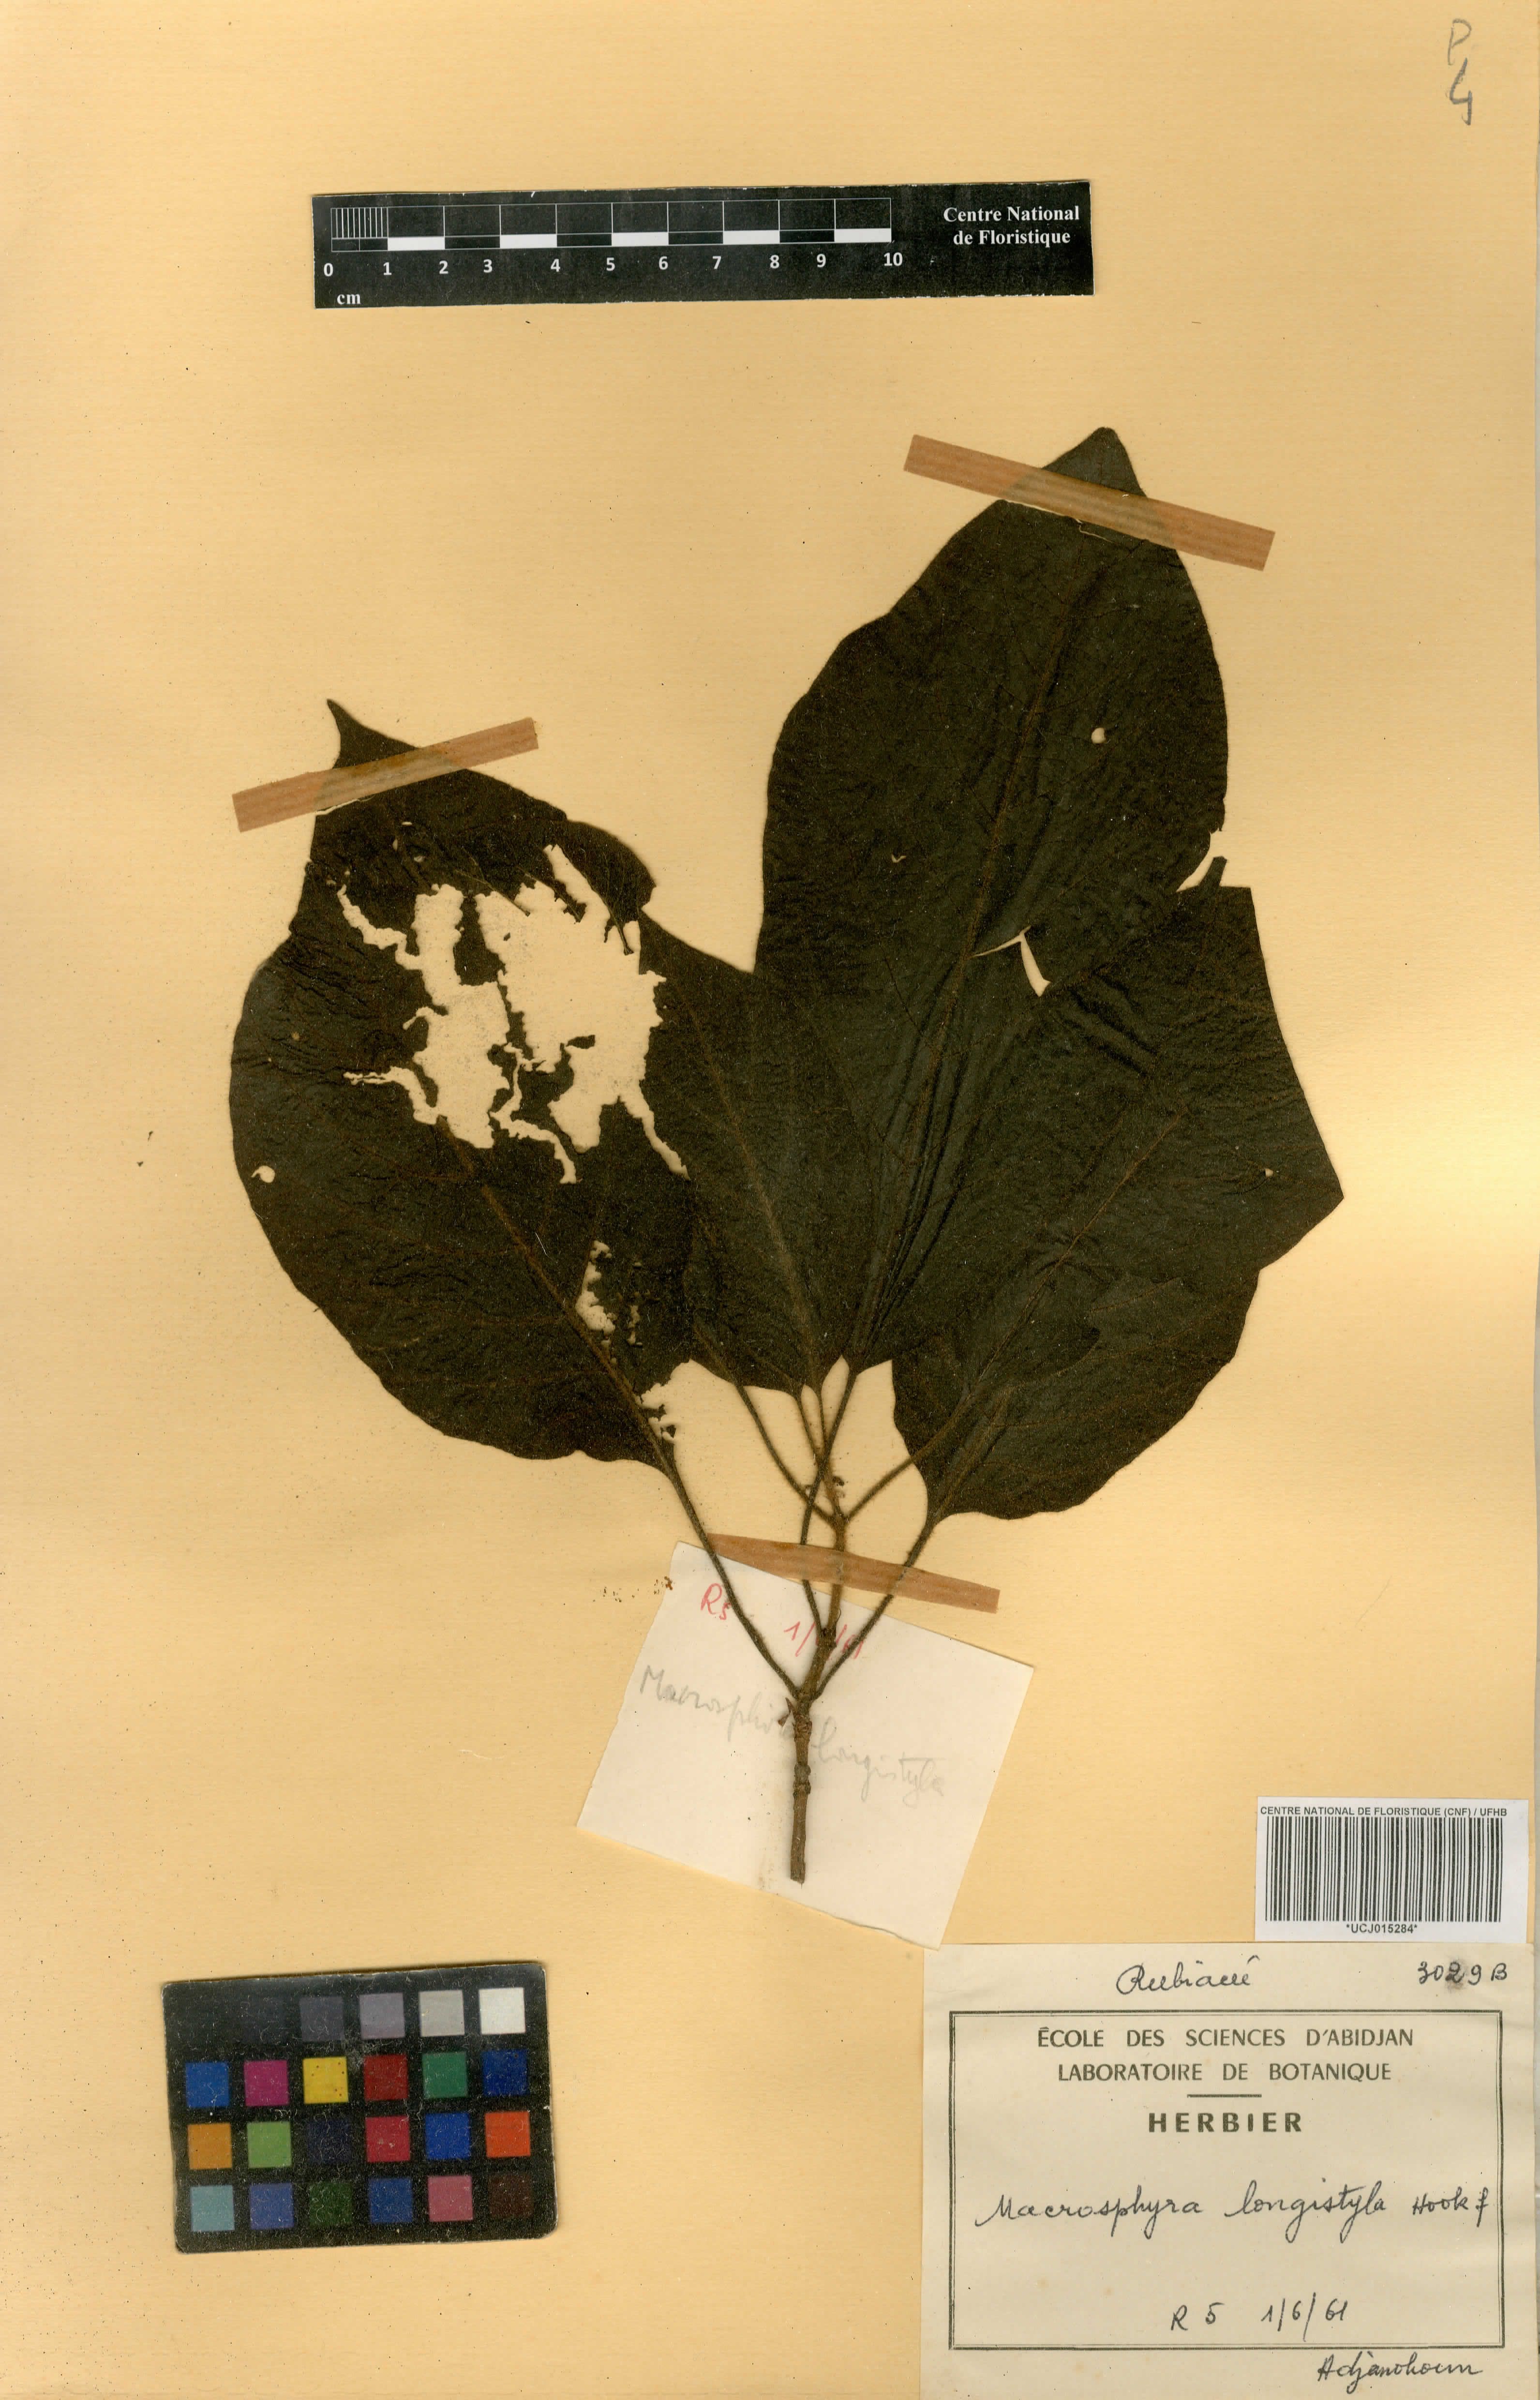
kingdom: Plantae
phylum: Tracheophyta
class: Magnoliopsida
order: Gentianales
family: Rubiaceae
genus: Macrosphyra
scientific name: Macrosphyra longistyla
